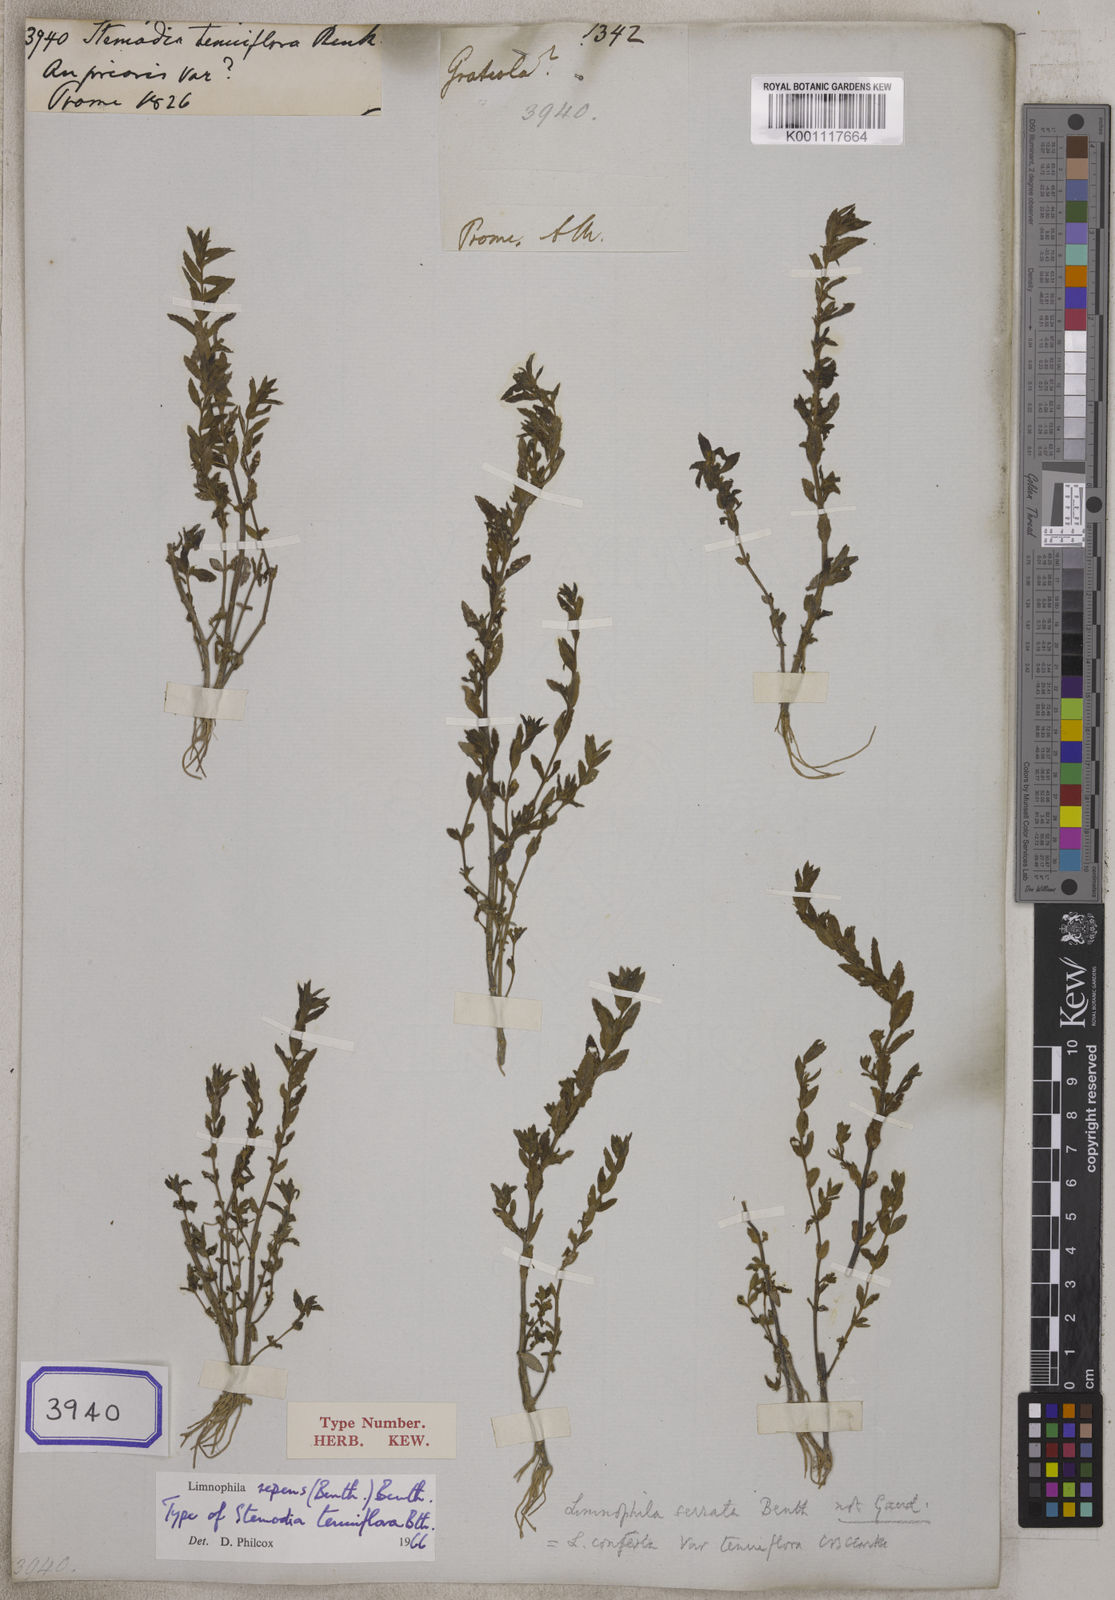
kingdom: Plantae
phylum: Tracheophyta
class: Magnoliopsida
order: Lamiales
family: Plantaginaceae
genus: Stemodia
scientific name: Stemodia
